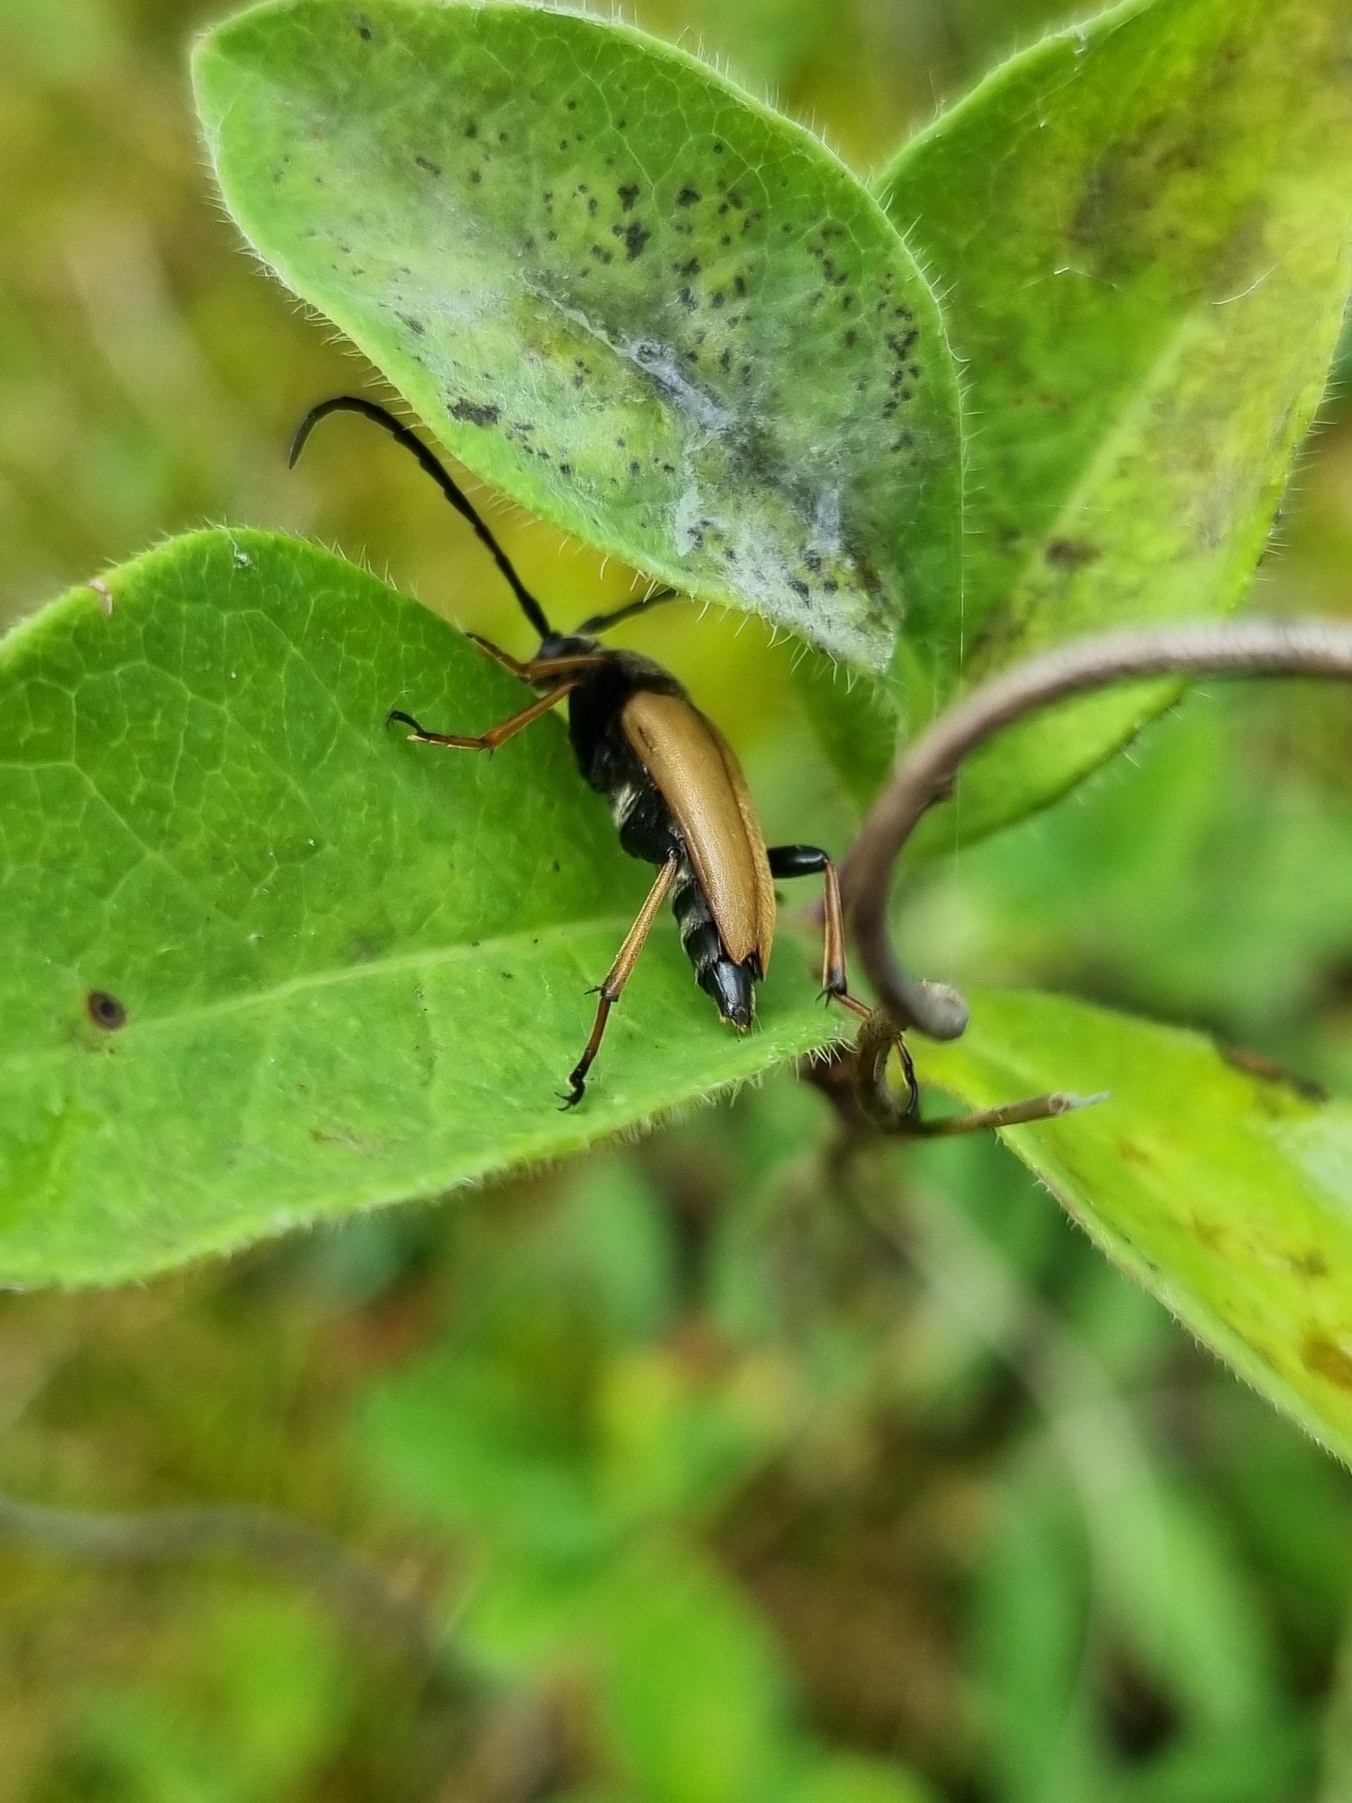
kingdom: Animalia
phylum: Arthropoda
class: Insecta
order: Coleoptera
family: Cerambycidae
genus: Stictoleptura
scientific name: Stictoleptura rubra
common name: Rød blomsterbuk
